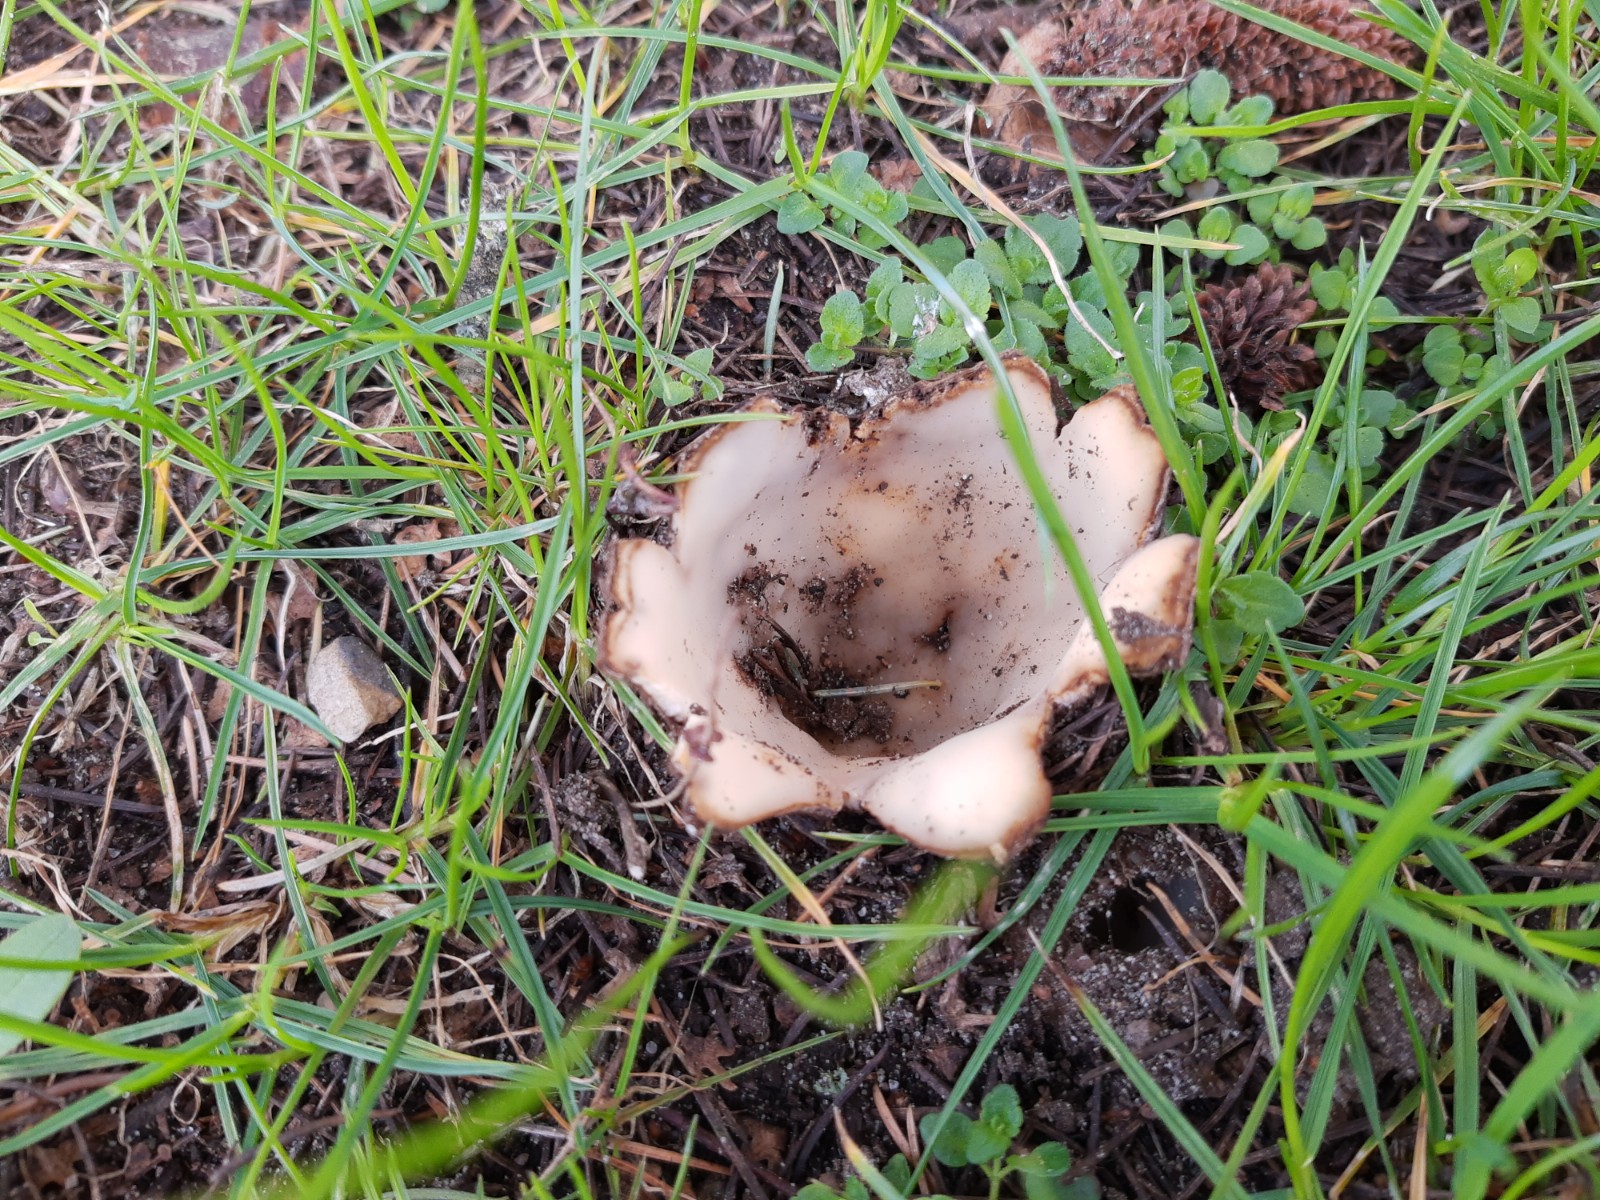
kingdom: Fungi
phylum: Ascomycota
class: Pezizomycetes
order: Pezizales
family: Pyronemataceae
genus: Geopora
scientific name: Geopora sumneriana
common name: vår-jordbæger
